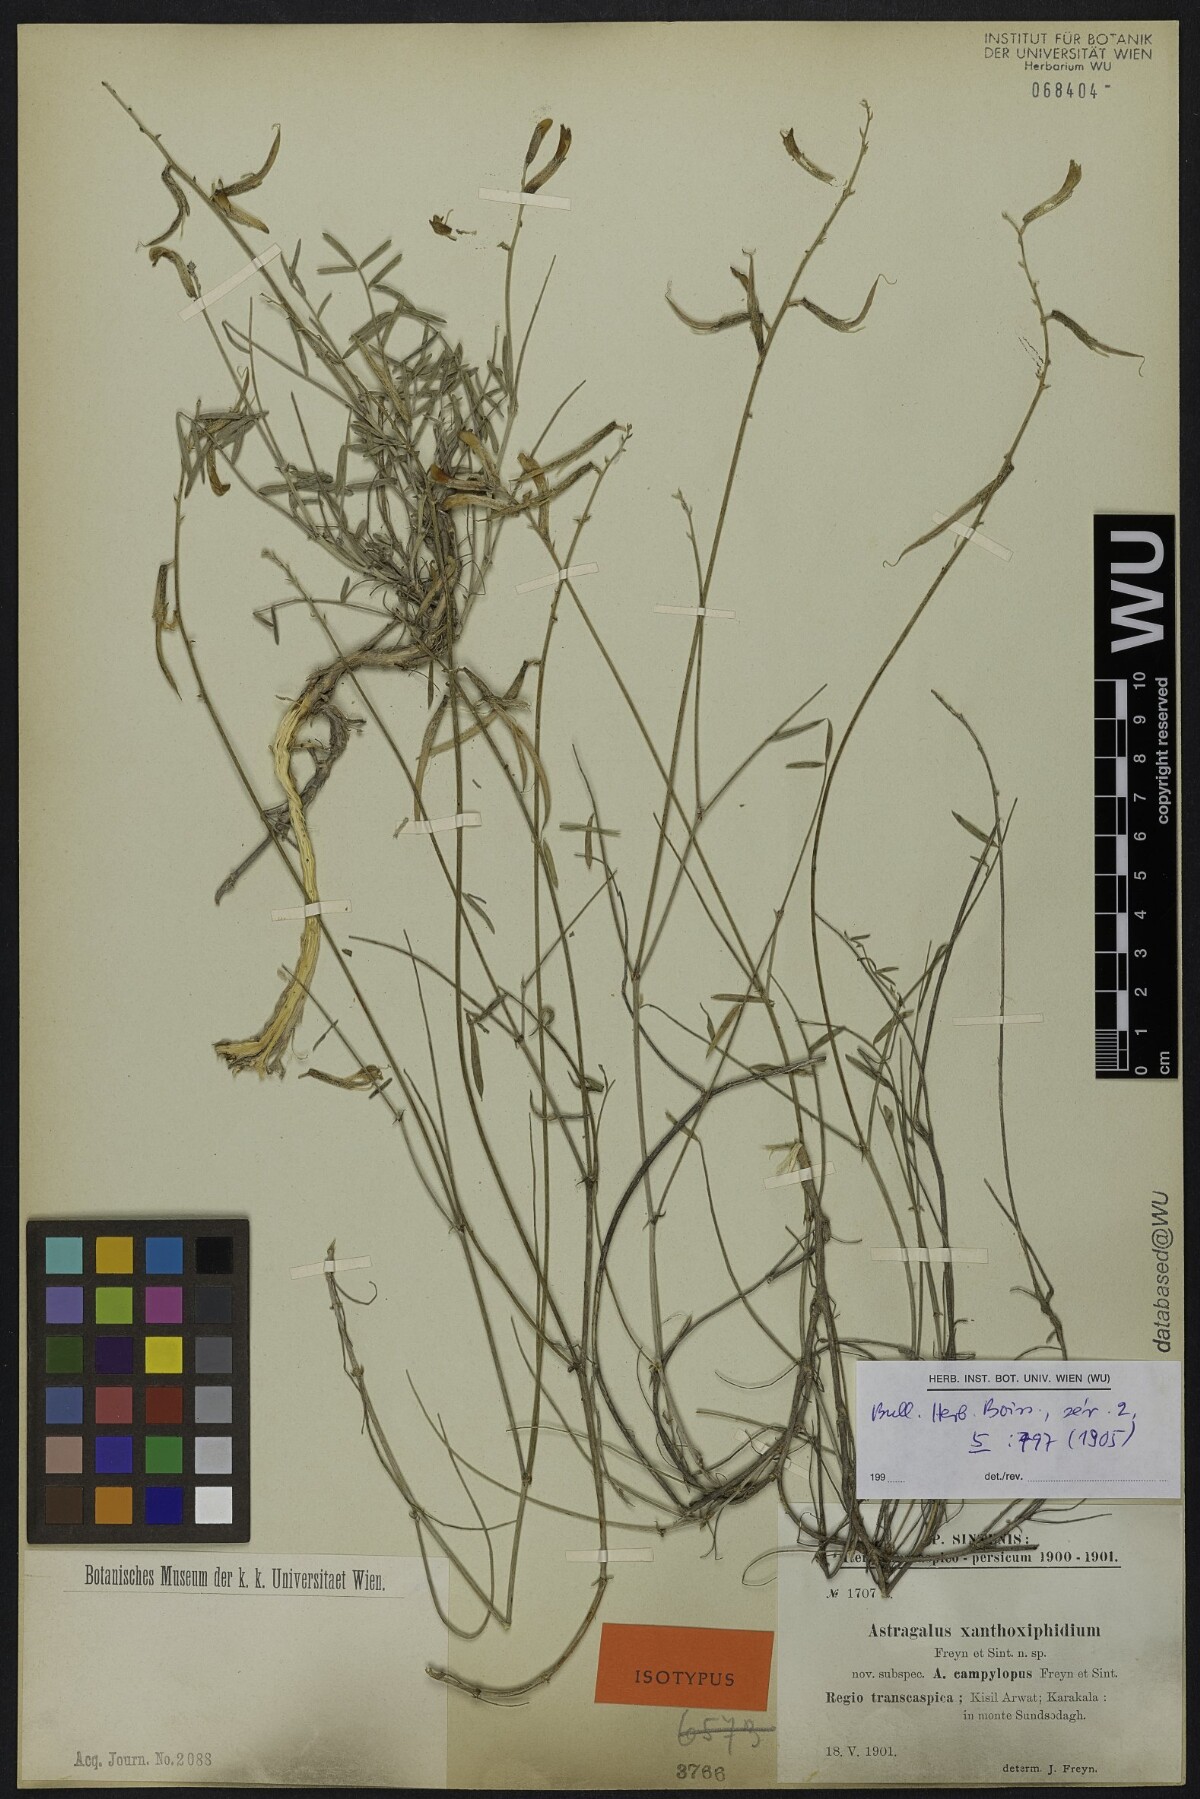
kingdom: Plantae
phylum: Tracheophyta
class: Magnoliopsida
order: Fabales
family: Fabaceae
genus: Astragalus
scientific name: Astragalus juratzkanus
